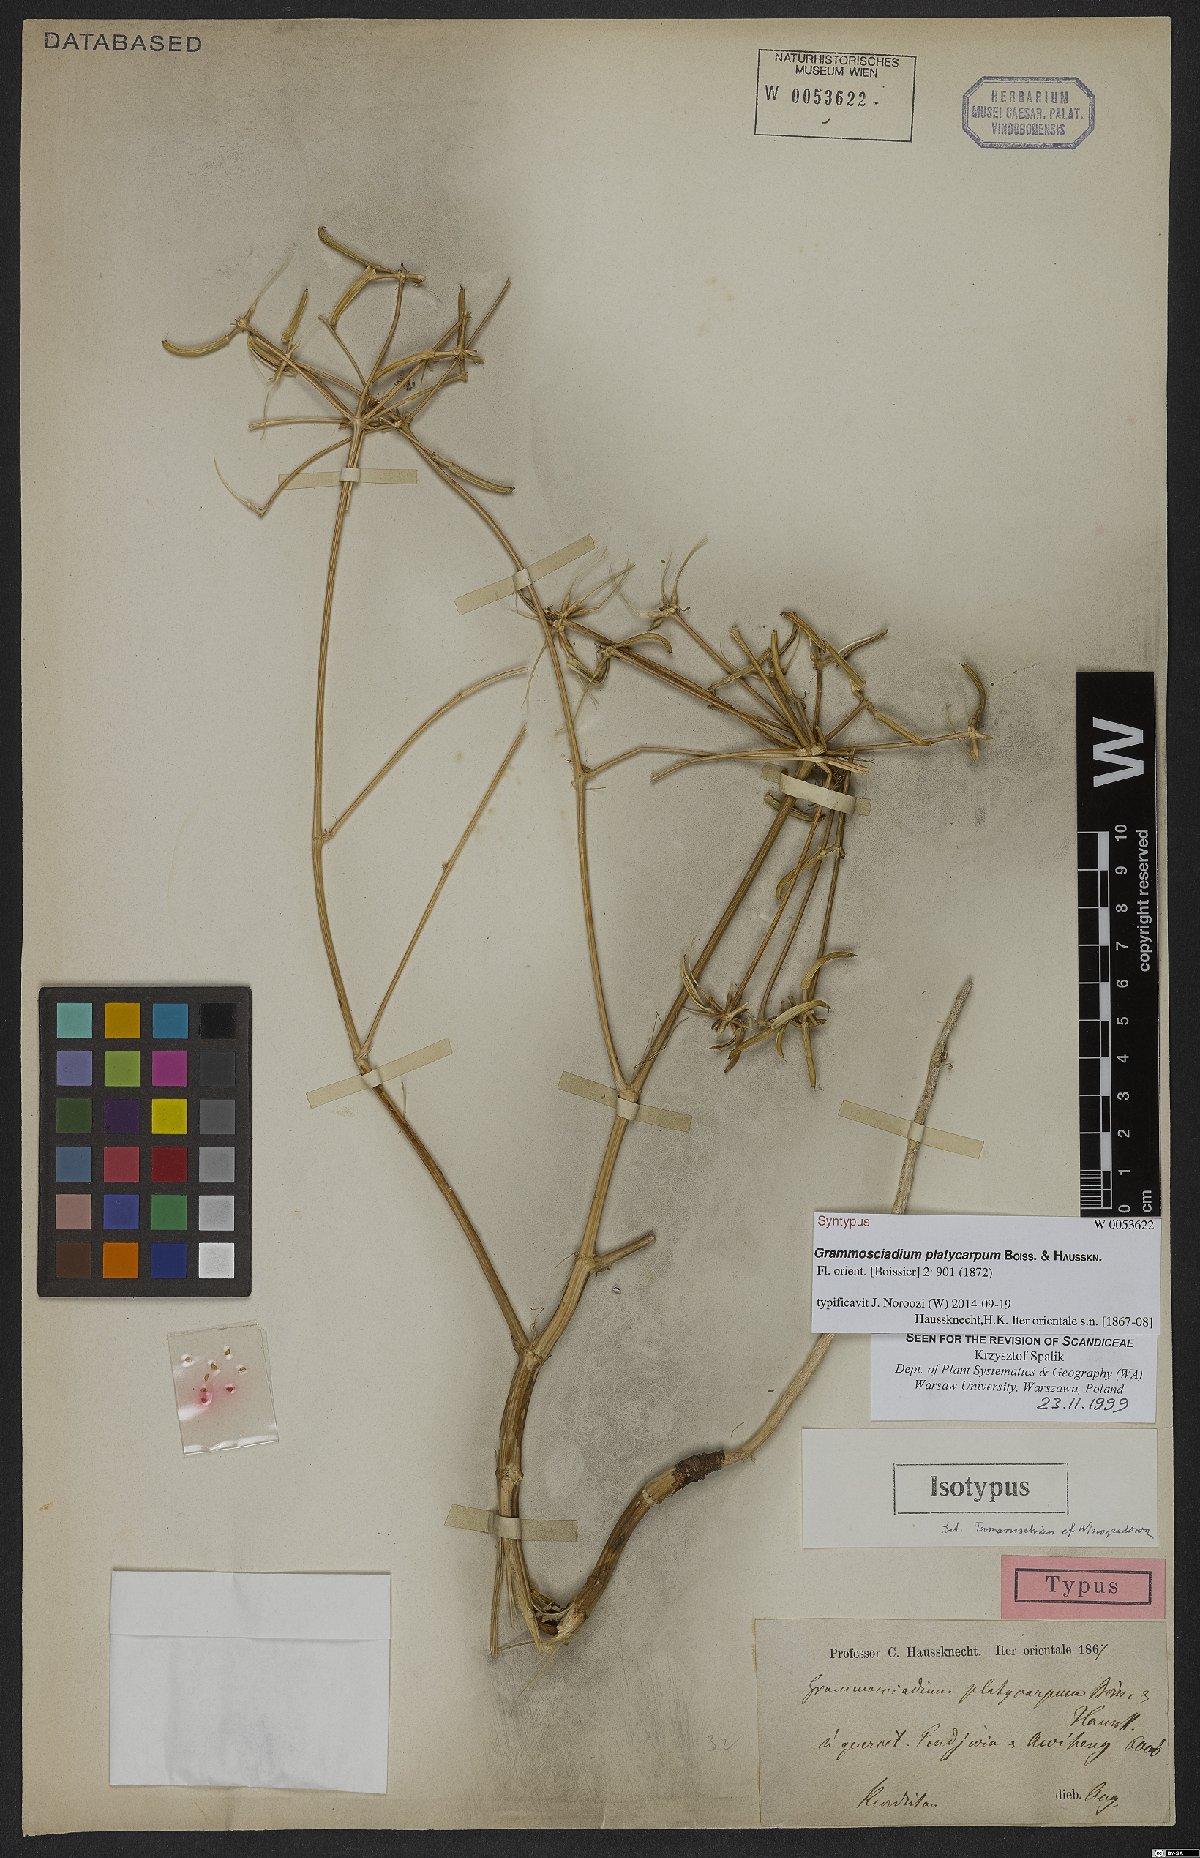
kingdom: Plantae
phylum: Tracheophyta
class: Magnoliopsida
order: Apiales
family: Apiaceae
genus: Caropodium
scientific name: Caropodium platycarpum
